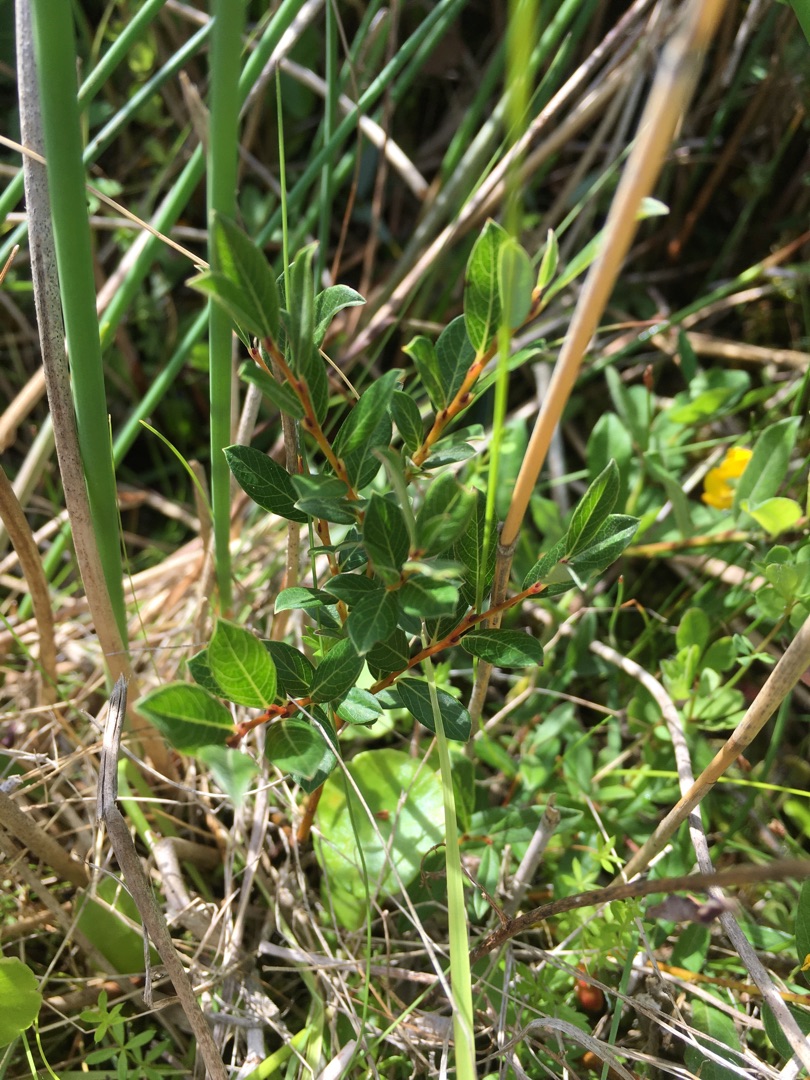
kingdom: Plantae
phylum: Tracheophyta
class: Magnoliopsida
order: Malpighiales
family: Salicaceae
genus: Salix
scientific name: Salix repens
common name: Krybende pil
